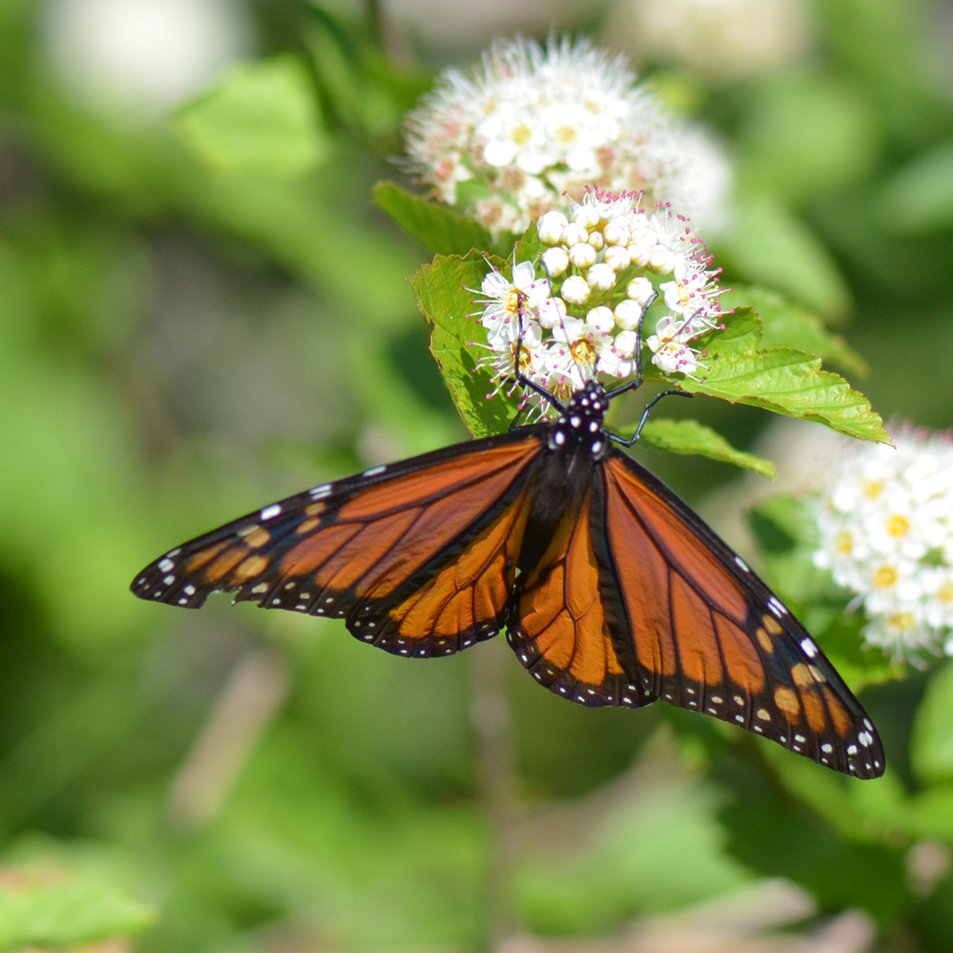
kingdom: Animalia
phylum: Arthropoda
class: Insecta
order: Lepidoptera
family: Nymphalidae
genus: Danaus
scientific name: Danaus plexippus
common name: Monarch
